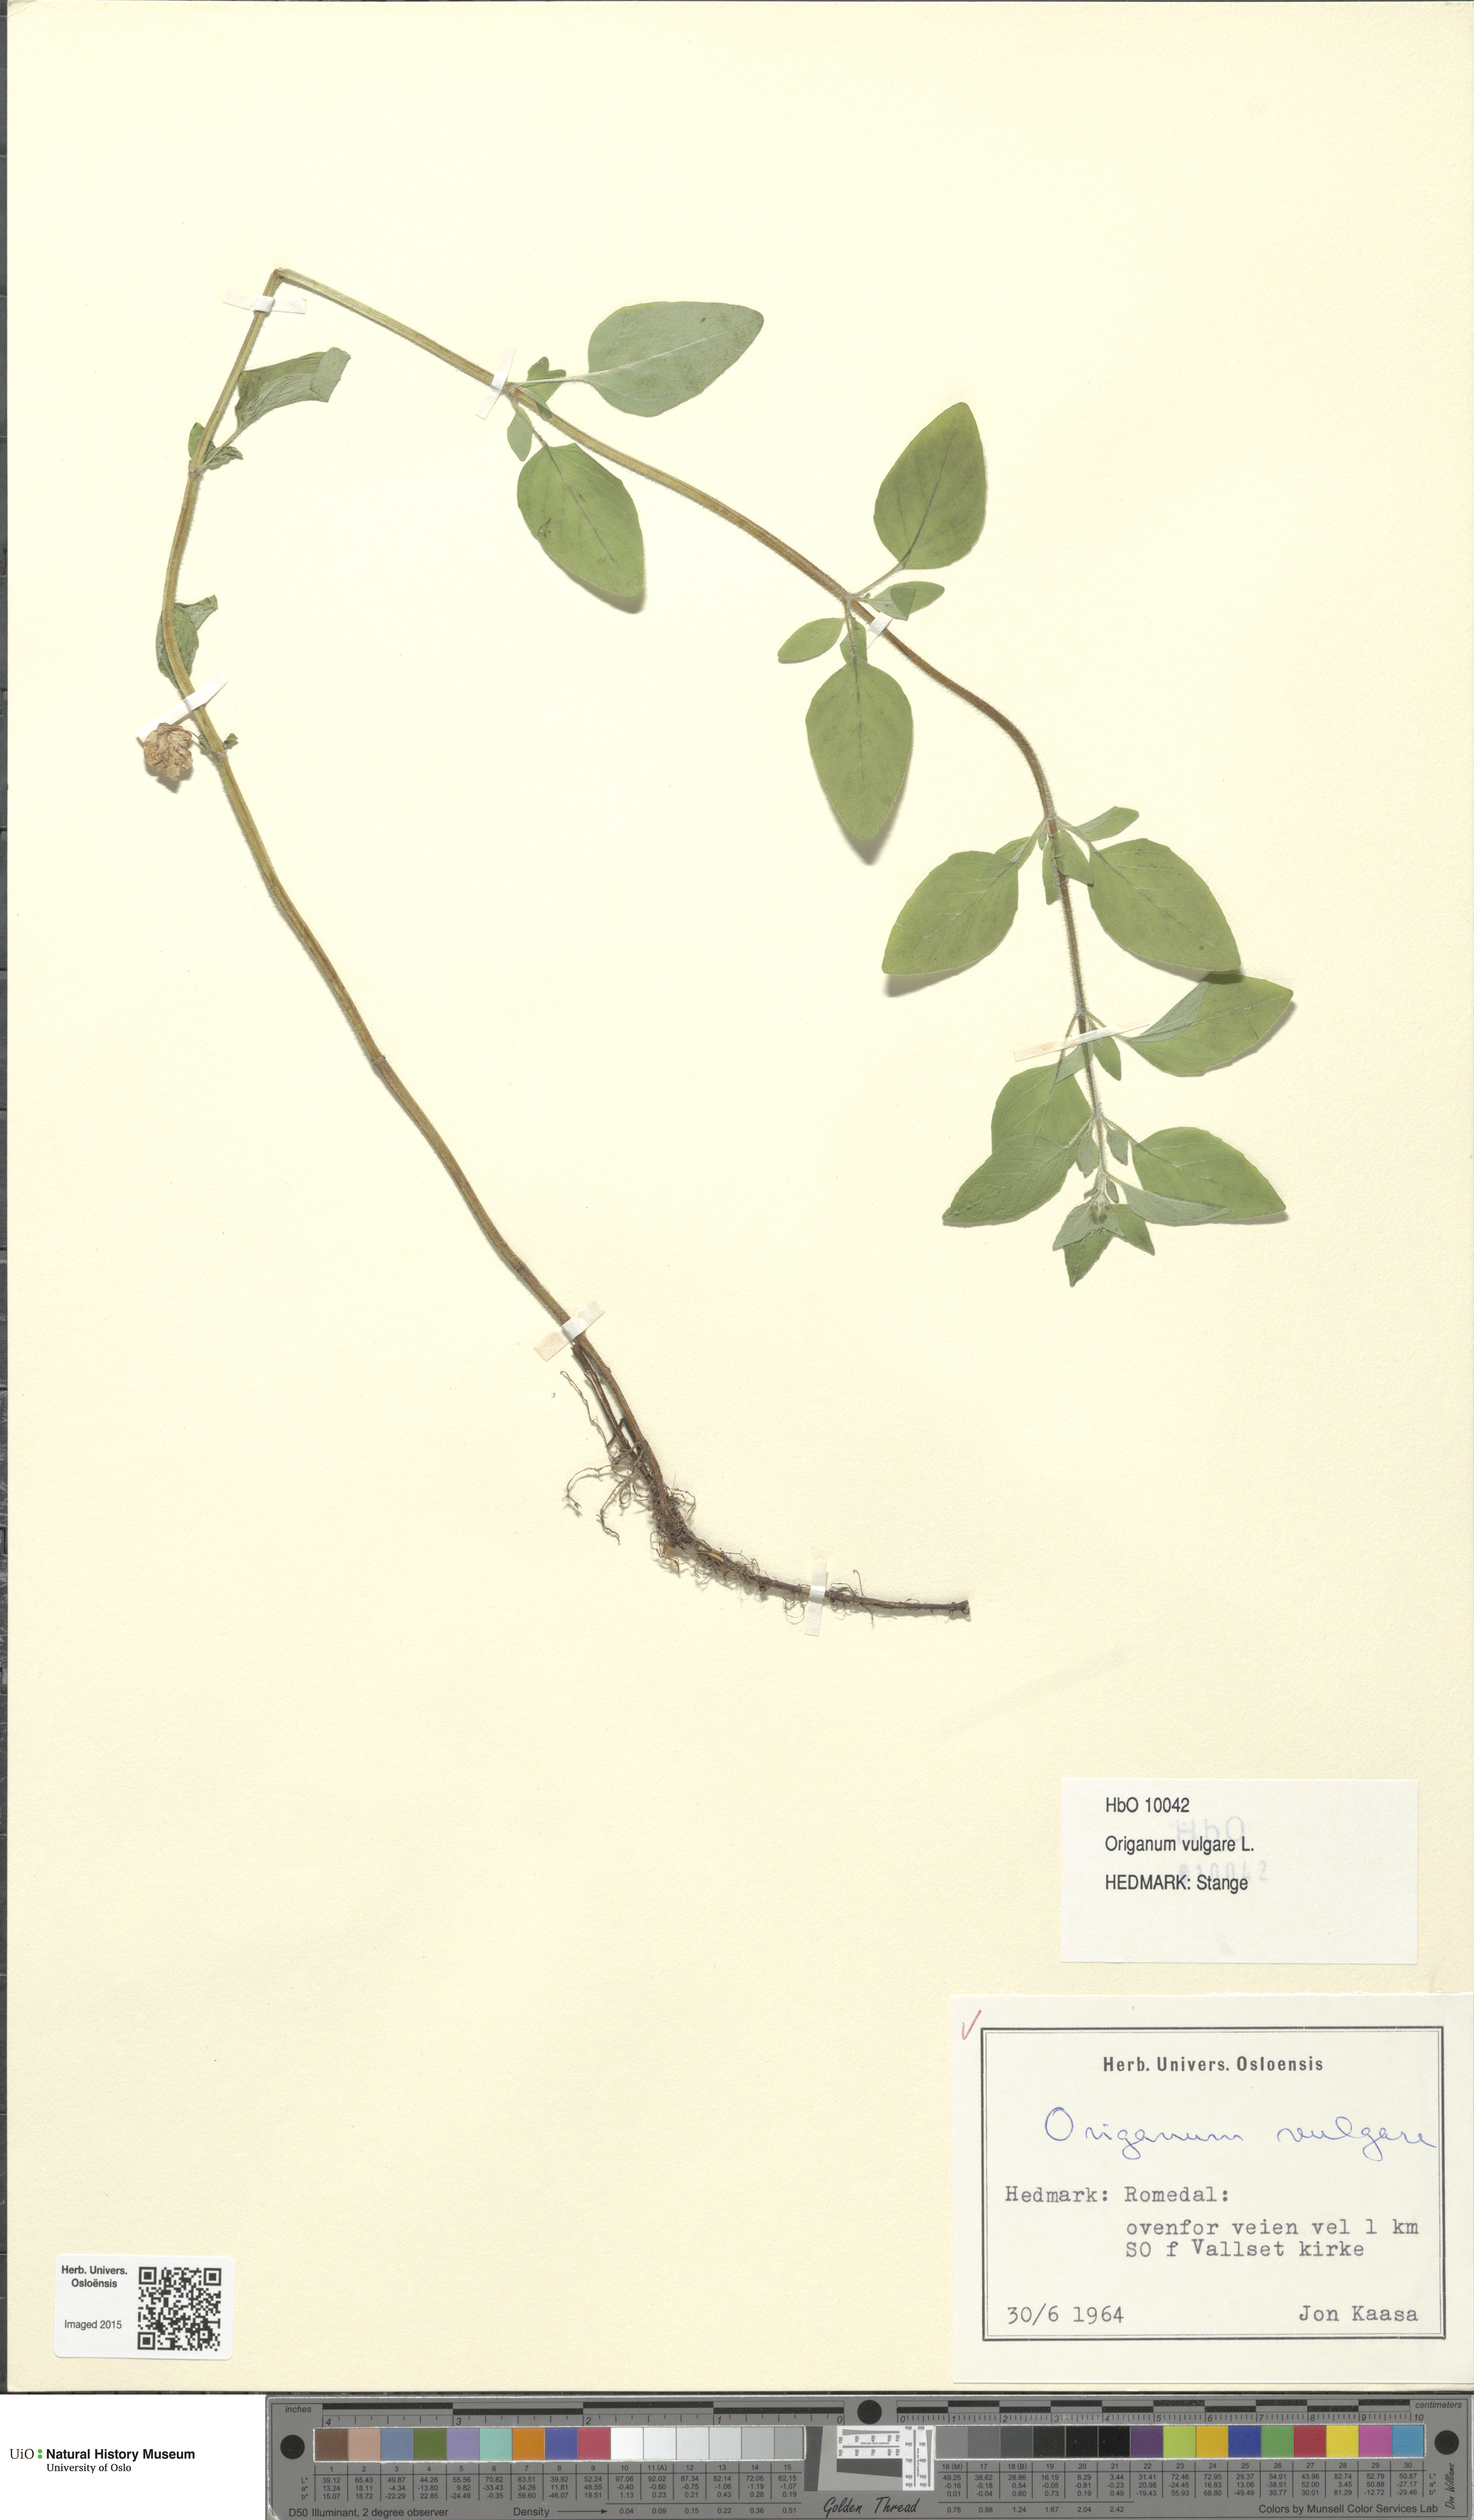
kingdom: Plantae
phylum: Tracheophyta
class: Magnoliopsida
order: Lamiales
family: Lamiaceae
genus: Origanum
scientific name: Origanum vulgare
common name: Wild marjoram
